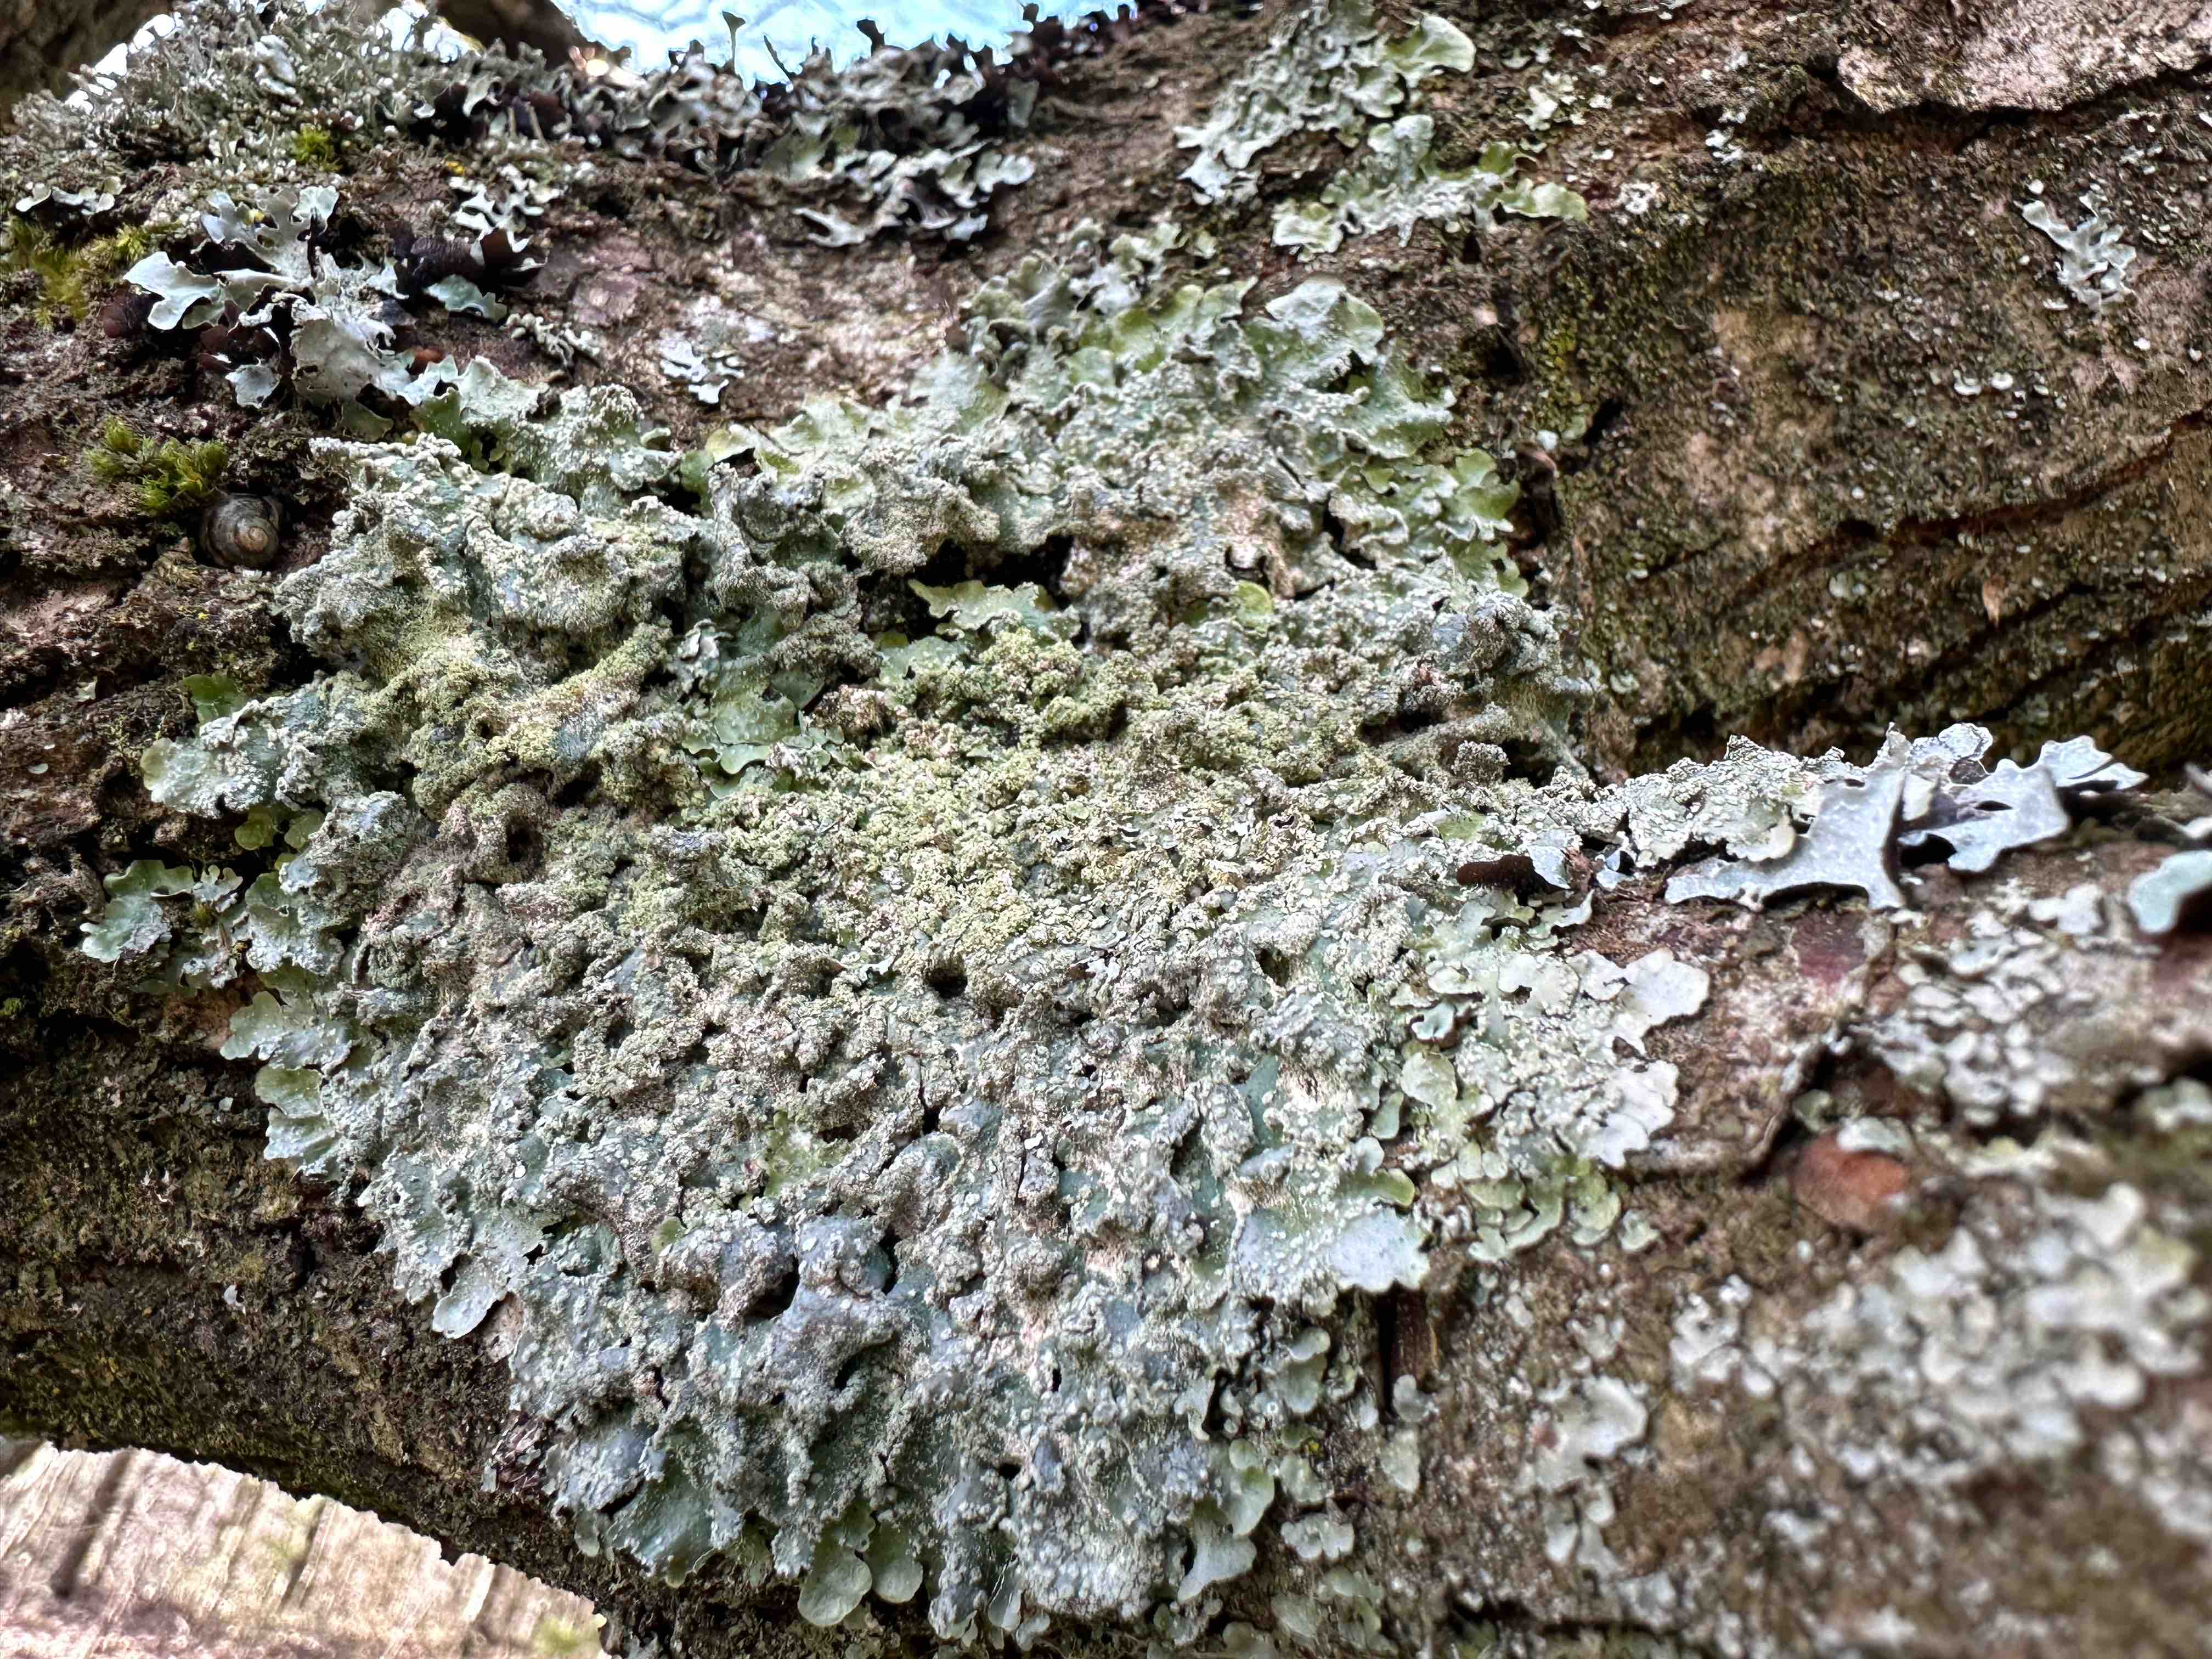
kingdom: Fungi
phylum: Ascomycota
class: Lecanoromycetes
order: Lecanorales
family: Parmeliaceae
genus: Punctelia
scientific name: Punctelia subrudecta
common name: punkt-skållav
